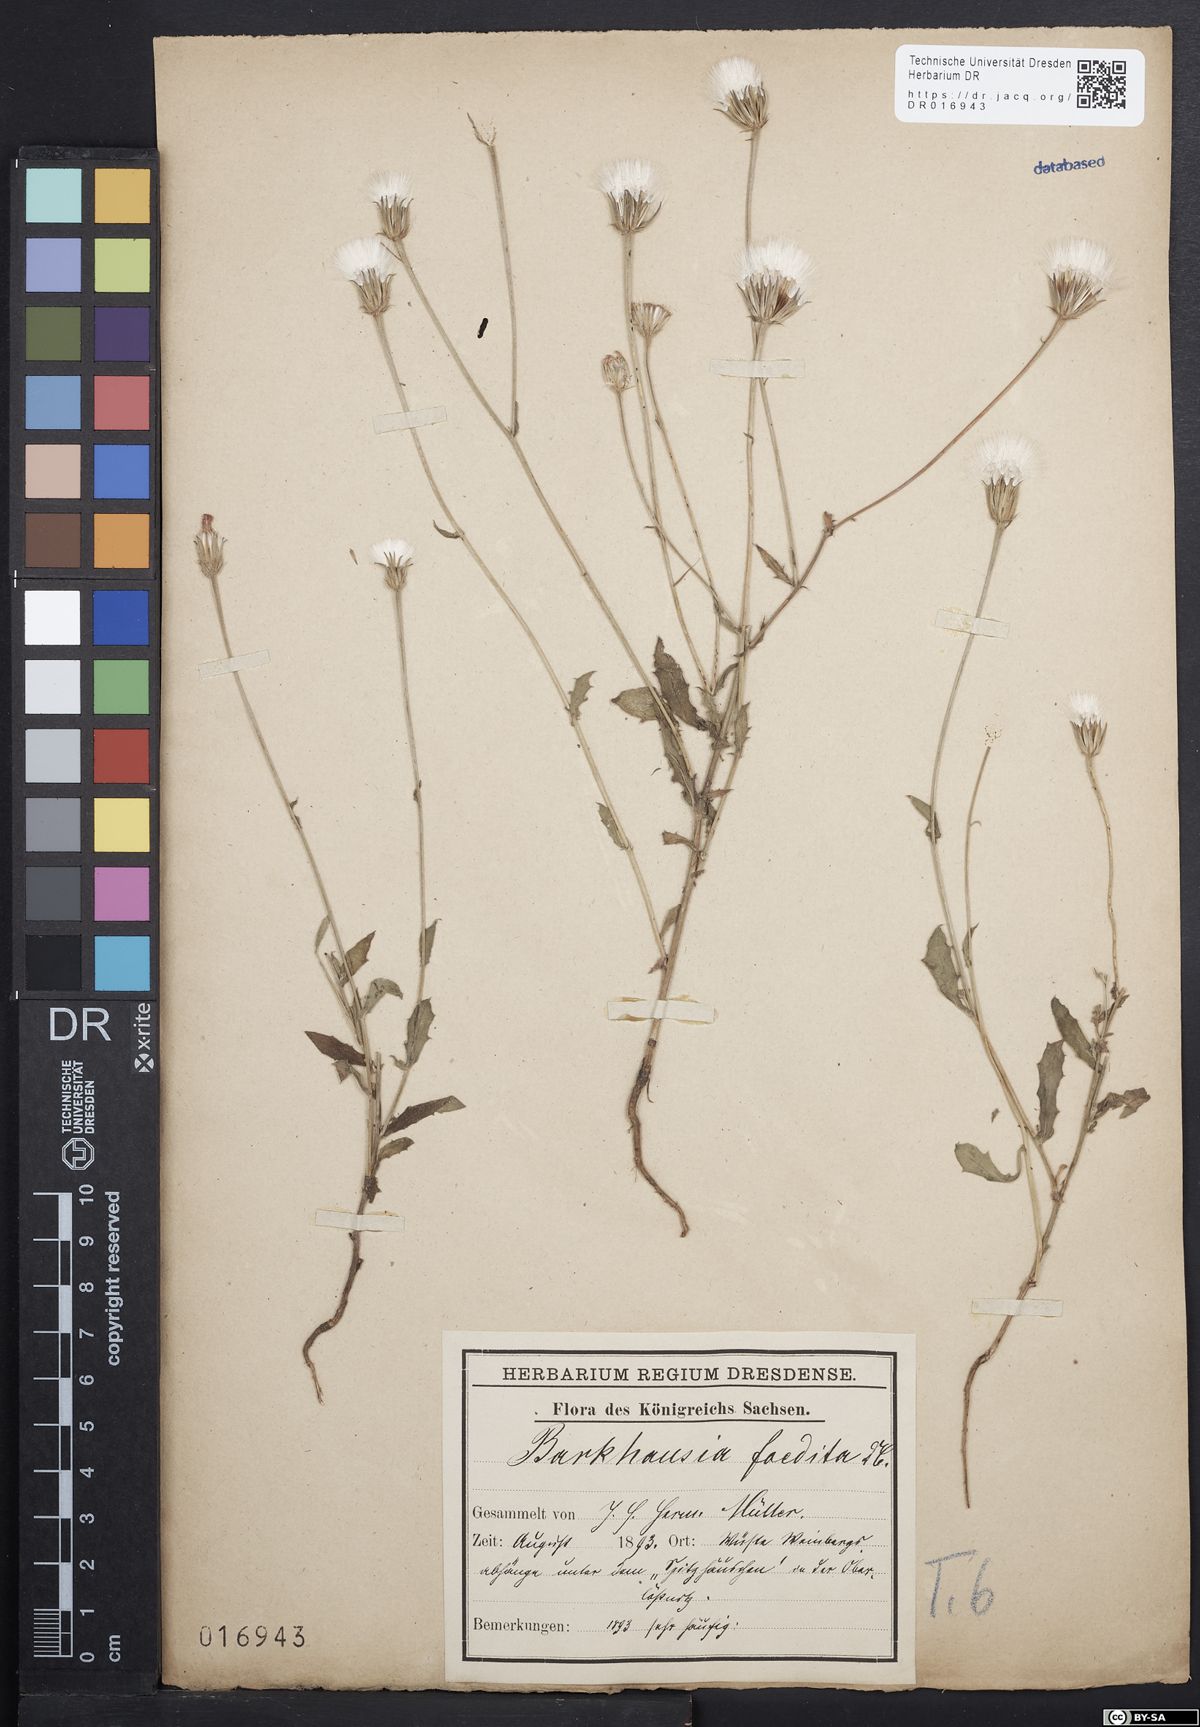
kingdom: Plantae
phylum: Tracheophyta
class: Magnoliopsida
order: Asterales
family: Asteraceae
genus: Crepis
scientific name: Crepis foetida
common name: Stinking hawk's-beard
